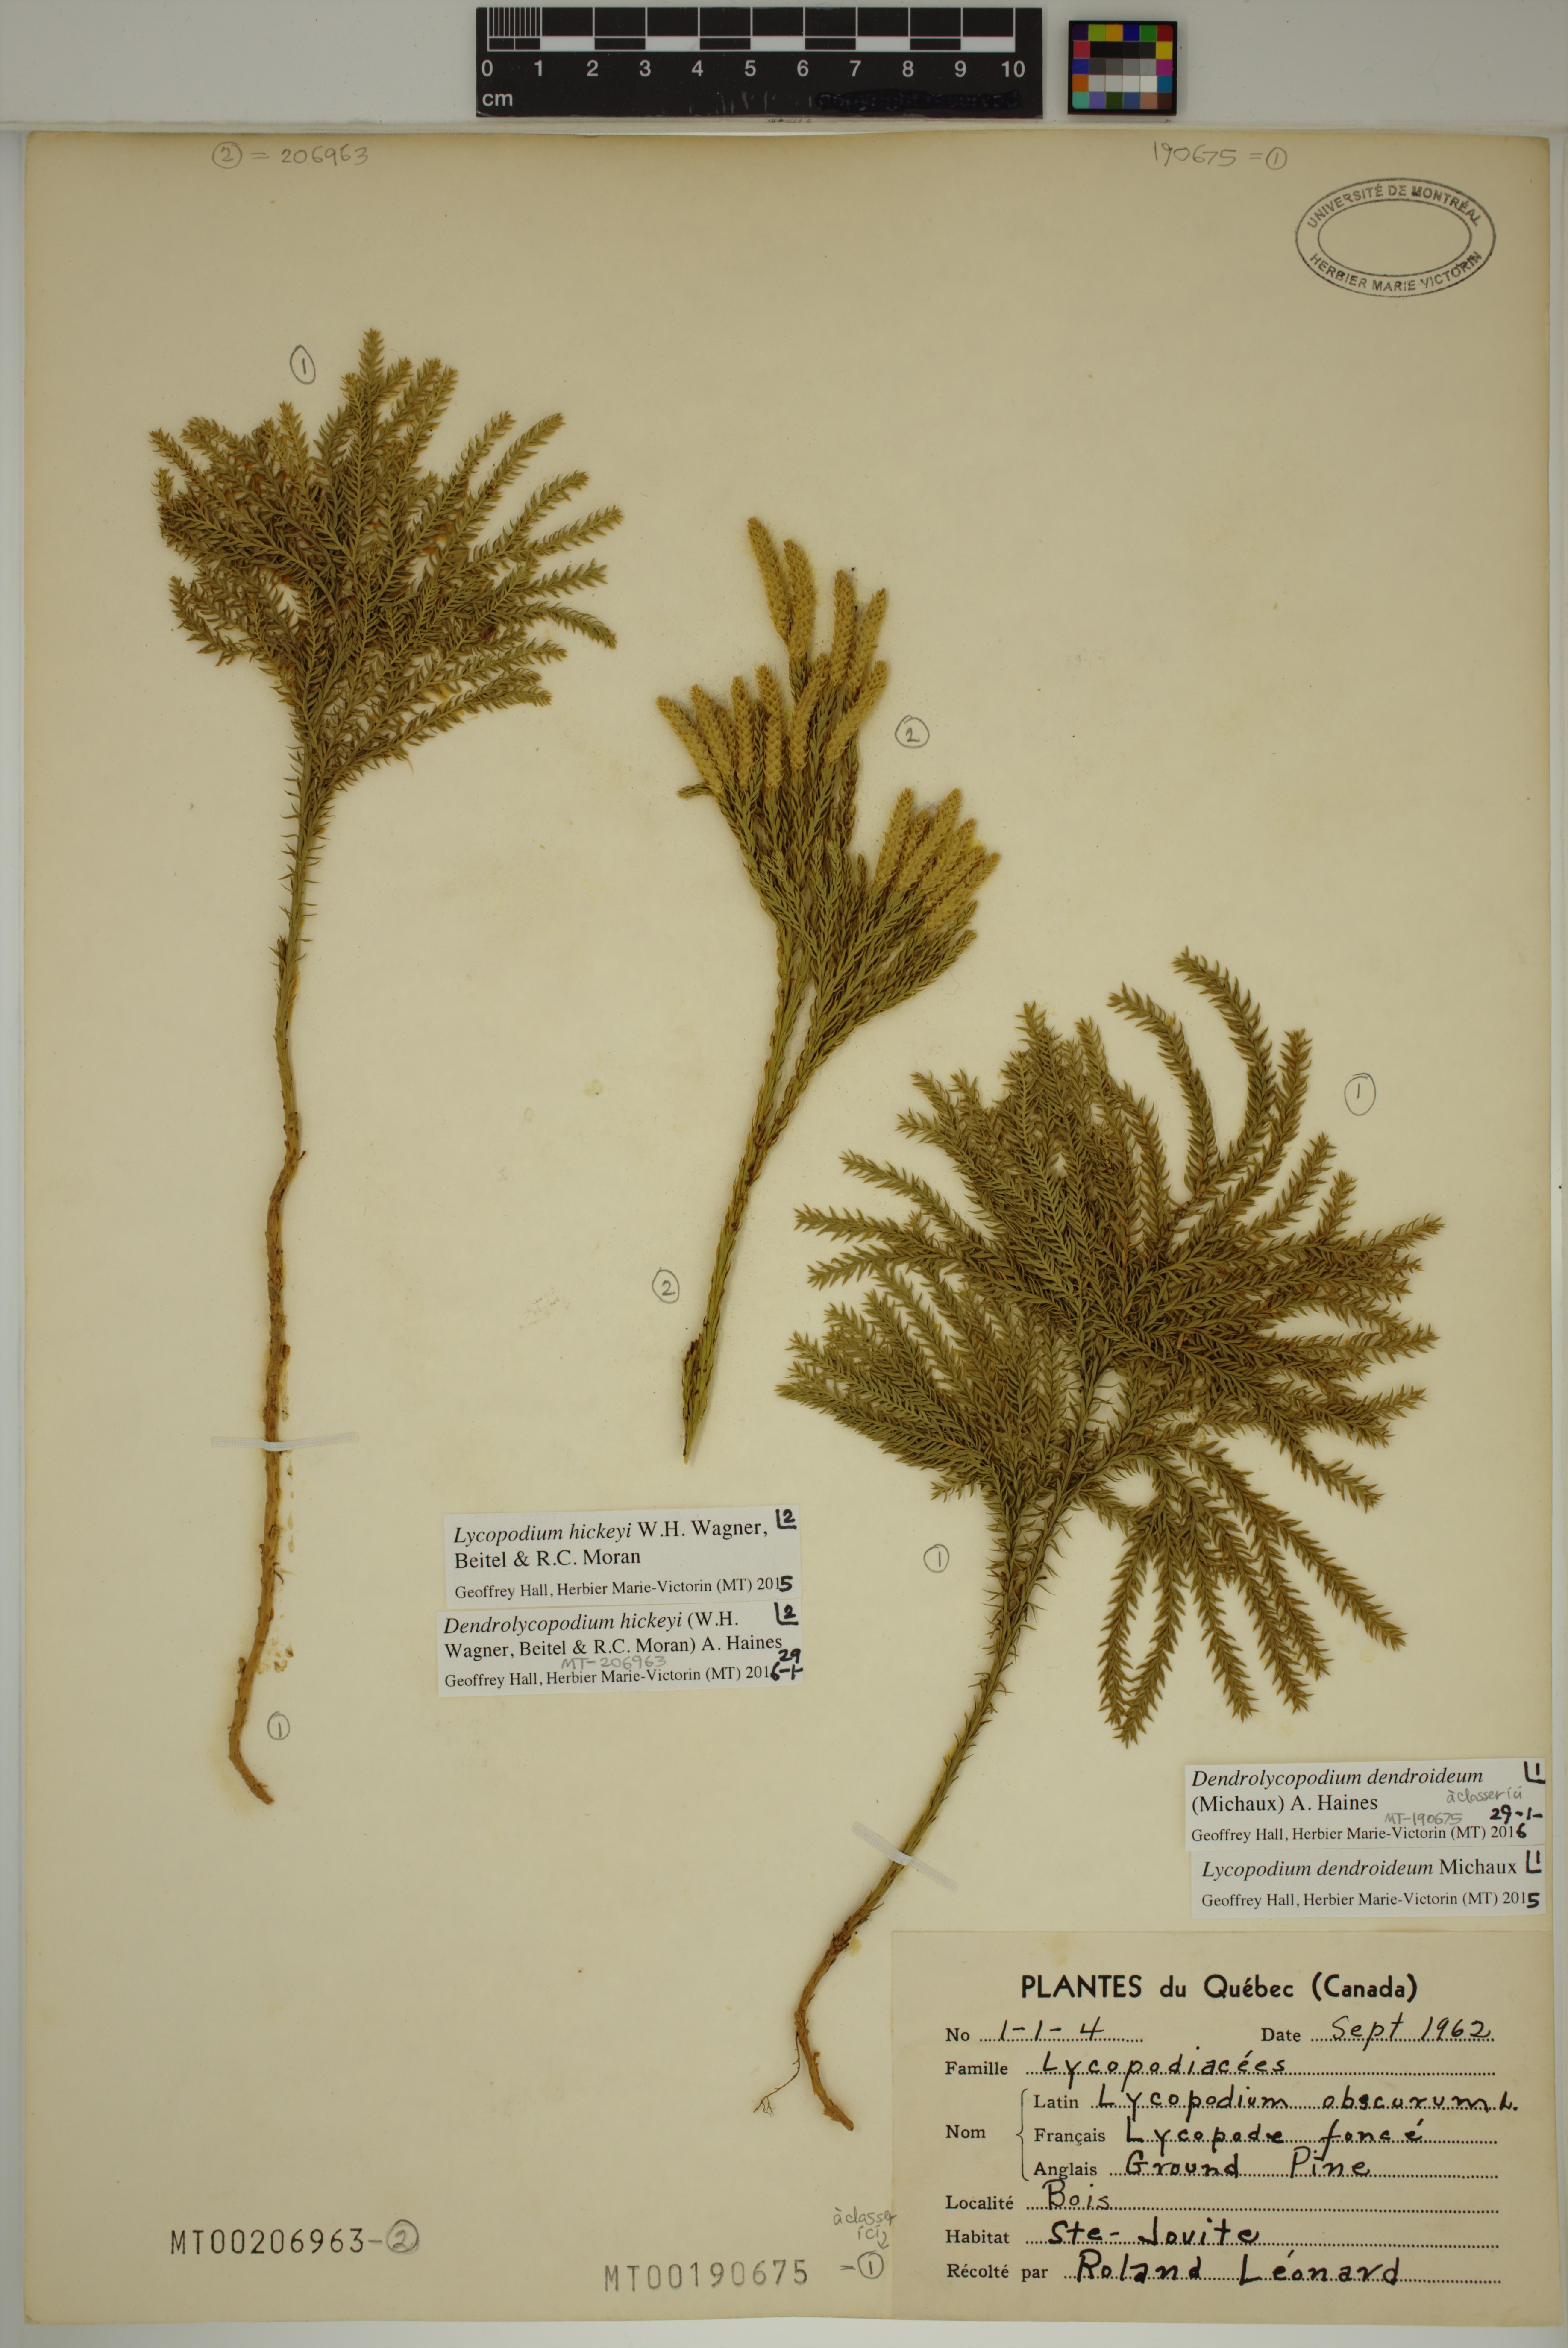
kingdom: Plantae
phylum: Tracheophyta
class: Lycopodiopsida
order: Lycopodiales
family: Lycopodiaceae
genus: Dendrolycopodium
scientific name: Dendrolycopodium dendroideum
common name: Northern tree-clubmoss
